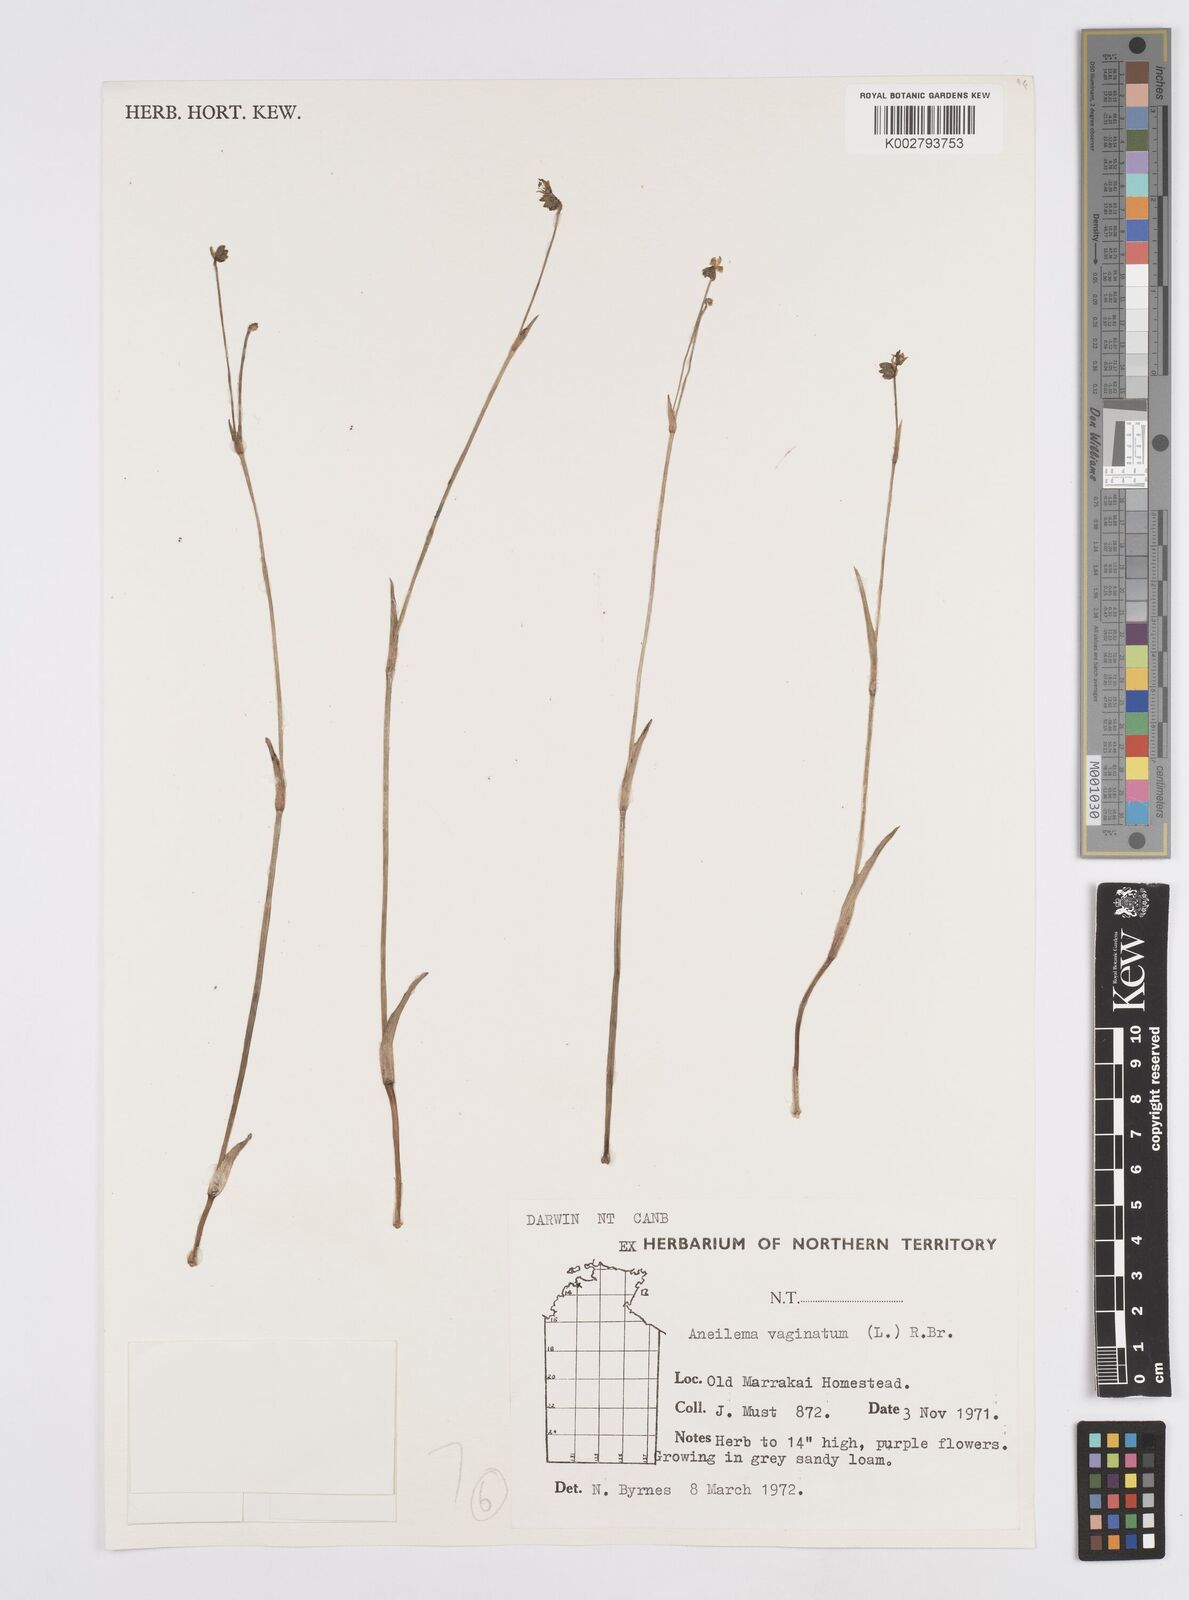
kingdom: Plantae
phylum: Tracheophyta
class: Liliopsida
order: Commelinales
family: Commelinaceae
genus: Murdannia
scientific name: Murdannia vaginata
